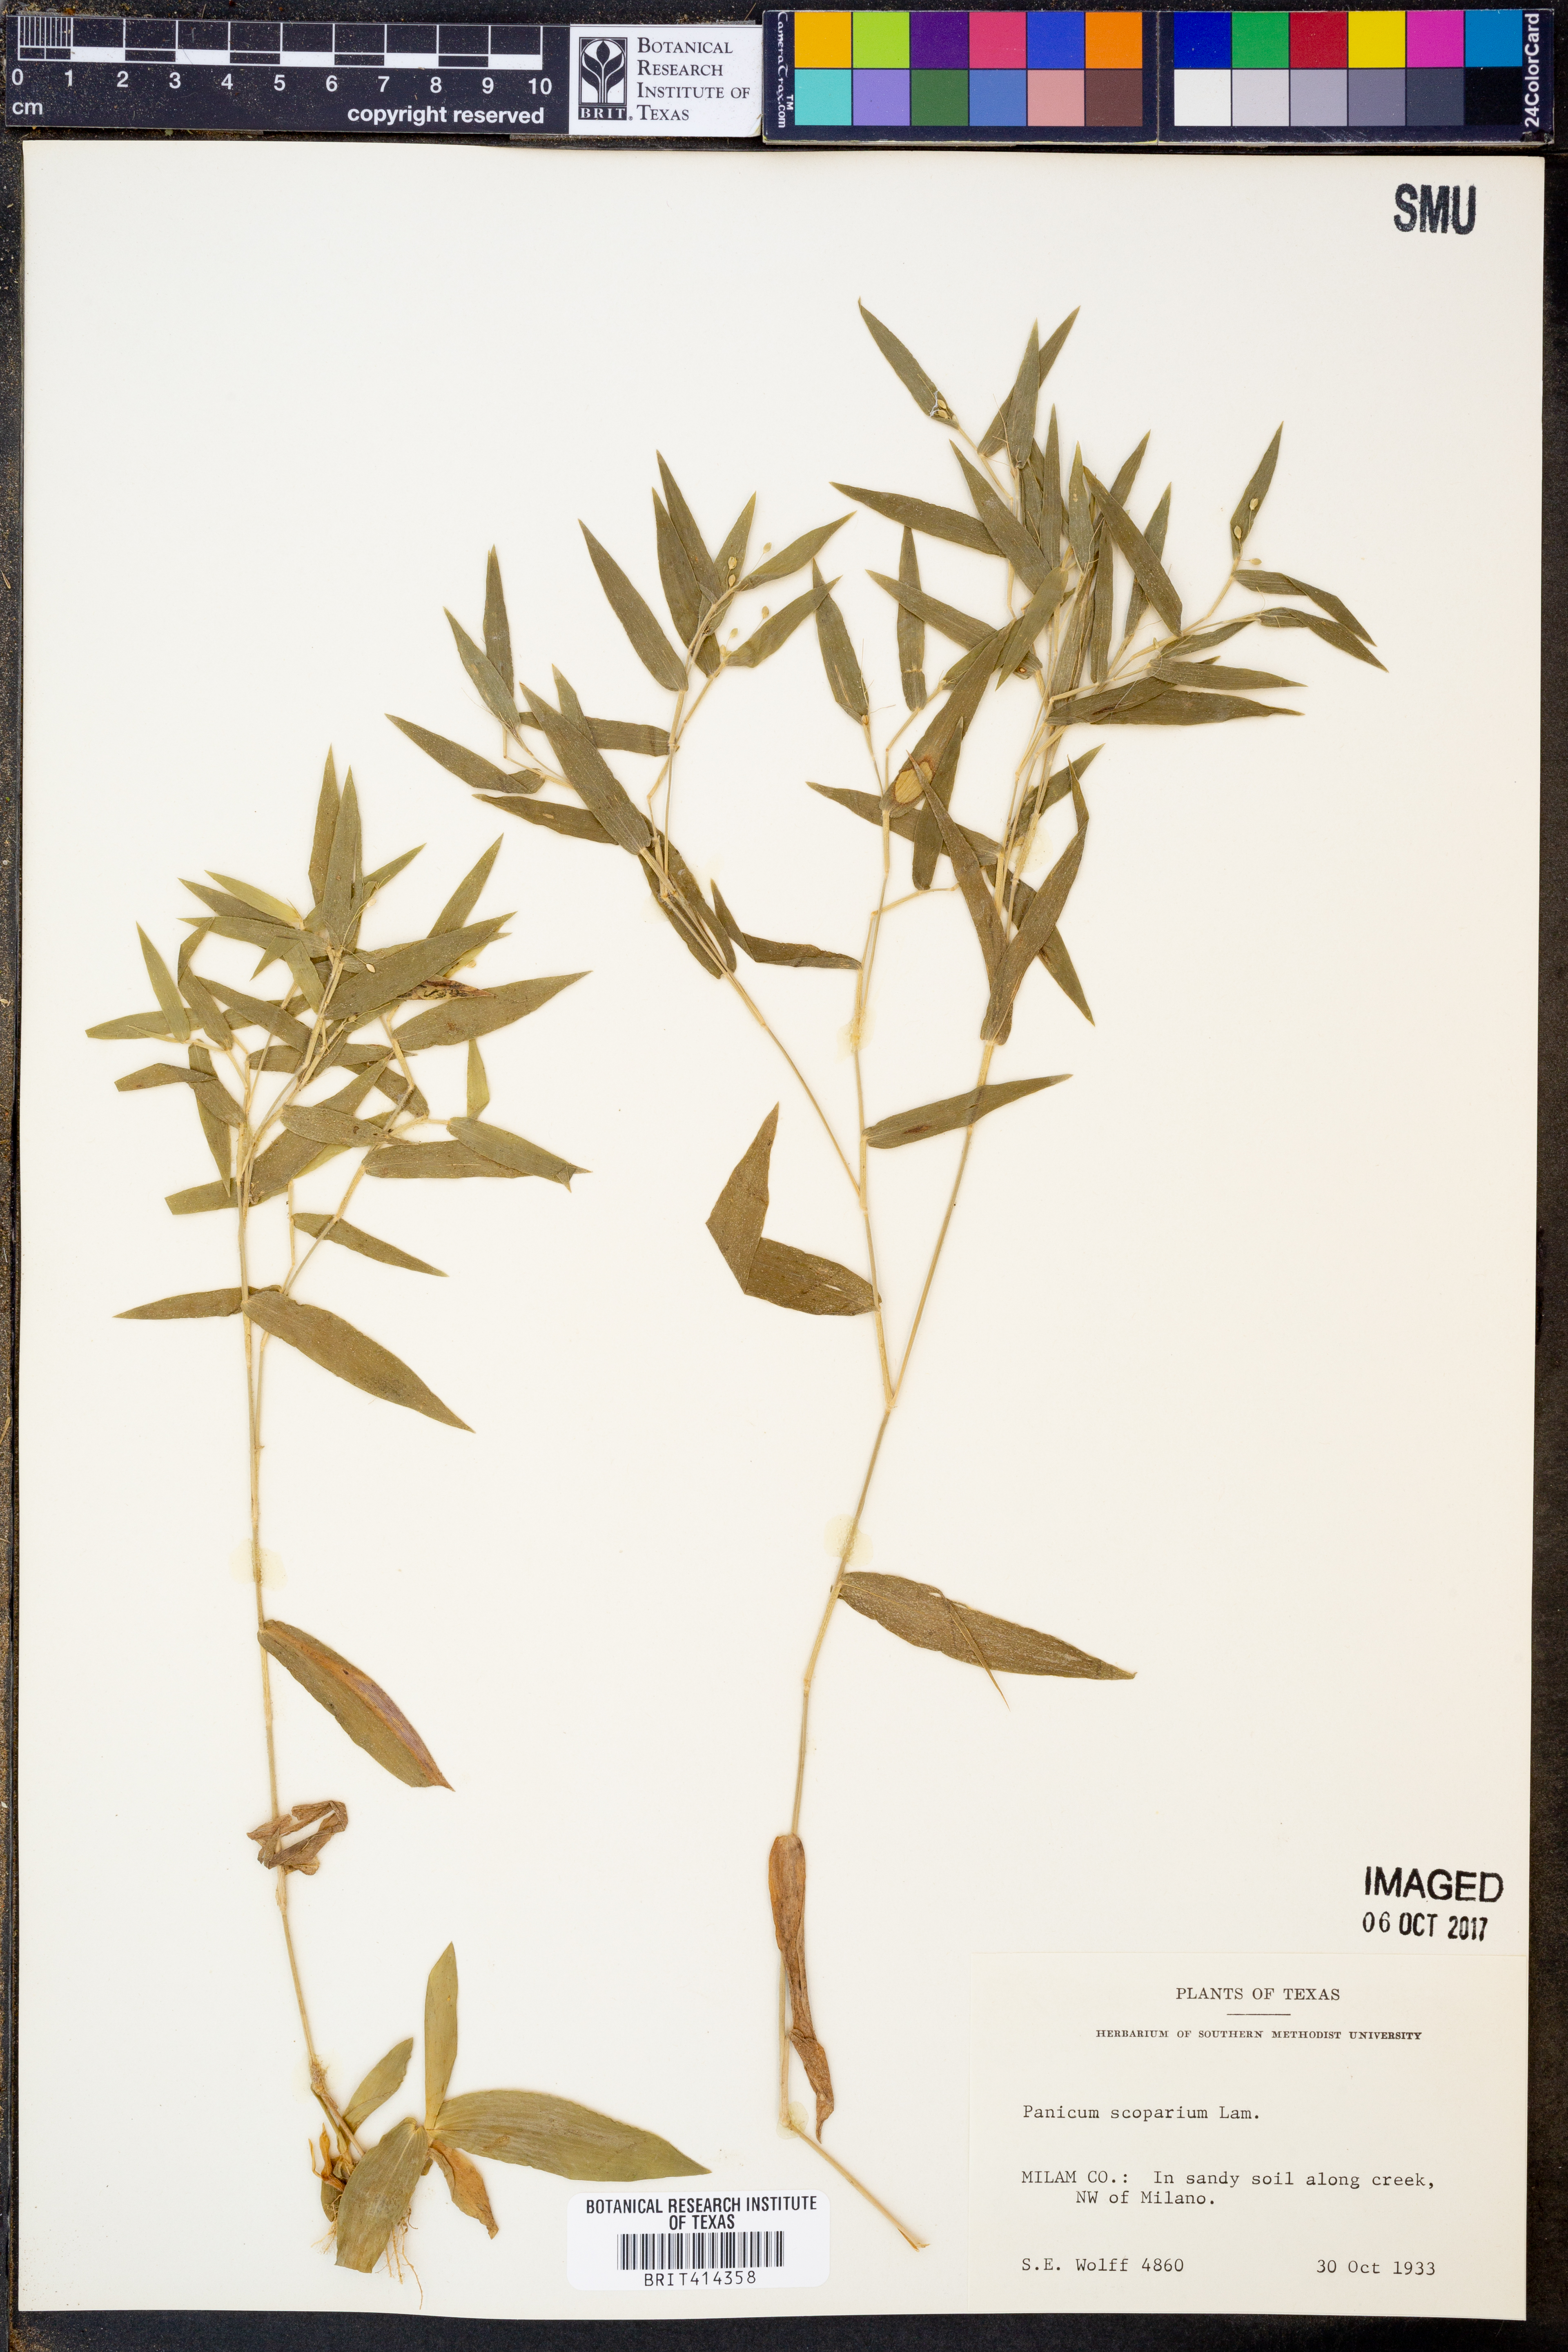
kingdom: Plantae
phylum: Tracheophyta
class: Liliopsida
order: Poales
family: Poaceae
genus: Dichanthelium
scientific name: Dichanthelium scribnerianum
